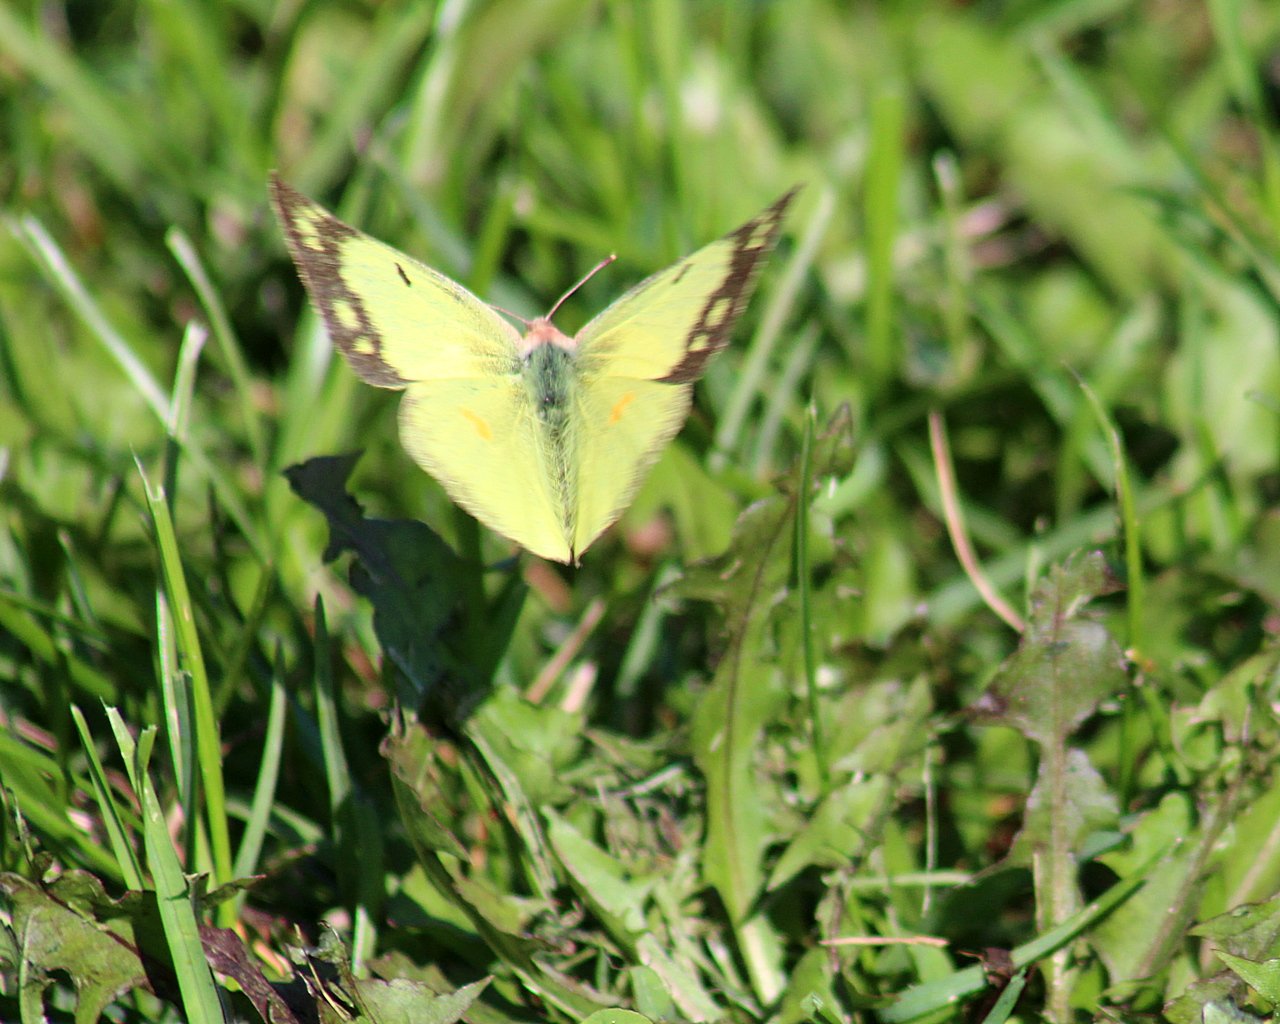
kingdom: Animalia
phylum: Arthropoda
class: Insecta
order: Lepidoptera
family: Pieridae
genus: Colias
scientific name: Colias philodice
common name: Clouded Sulphur
